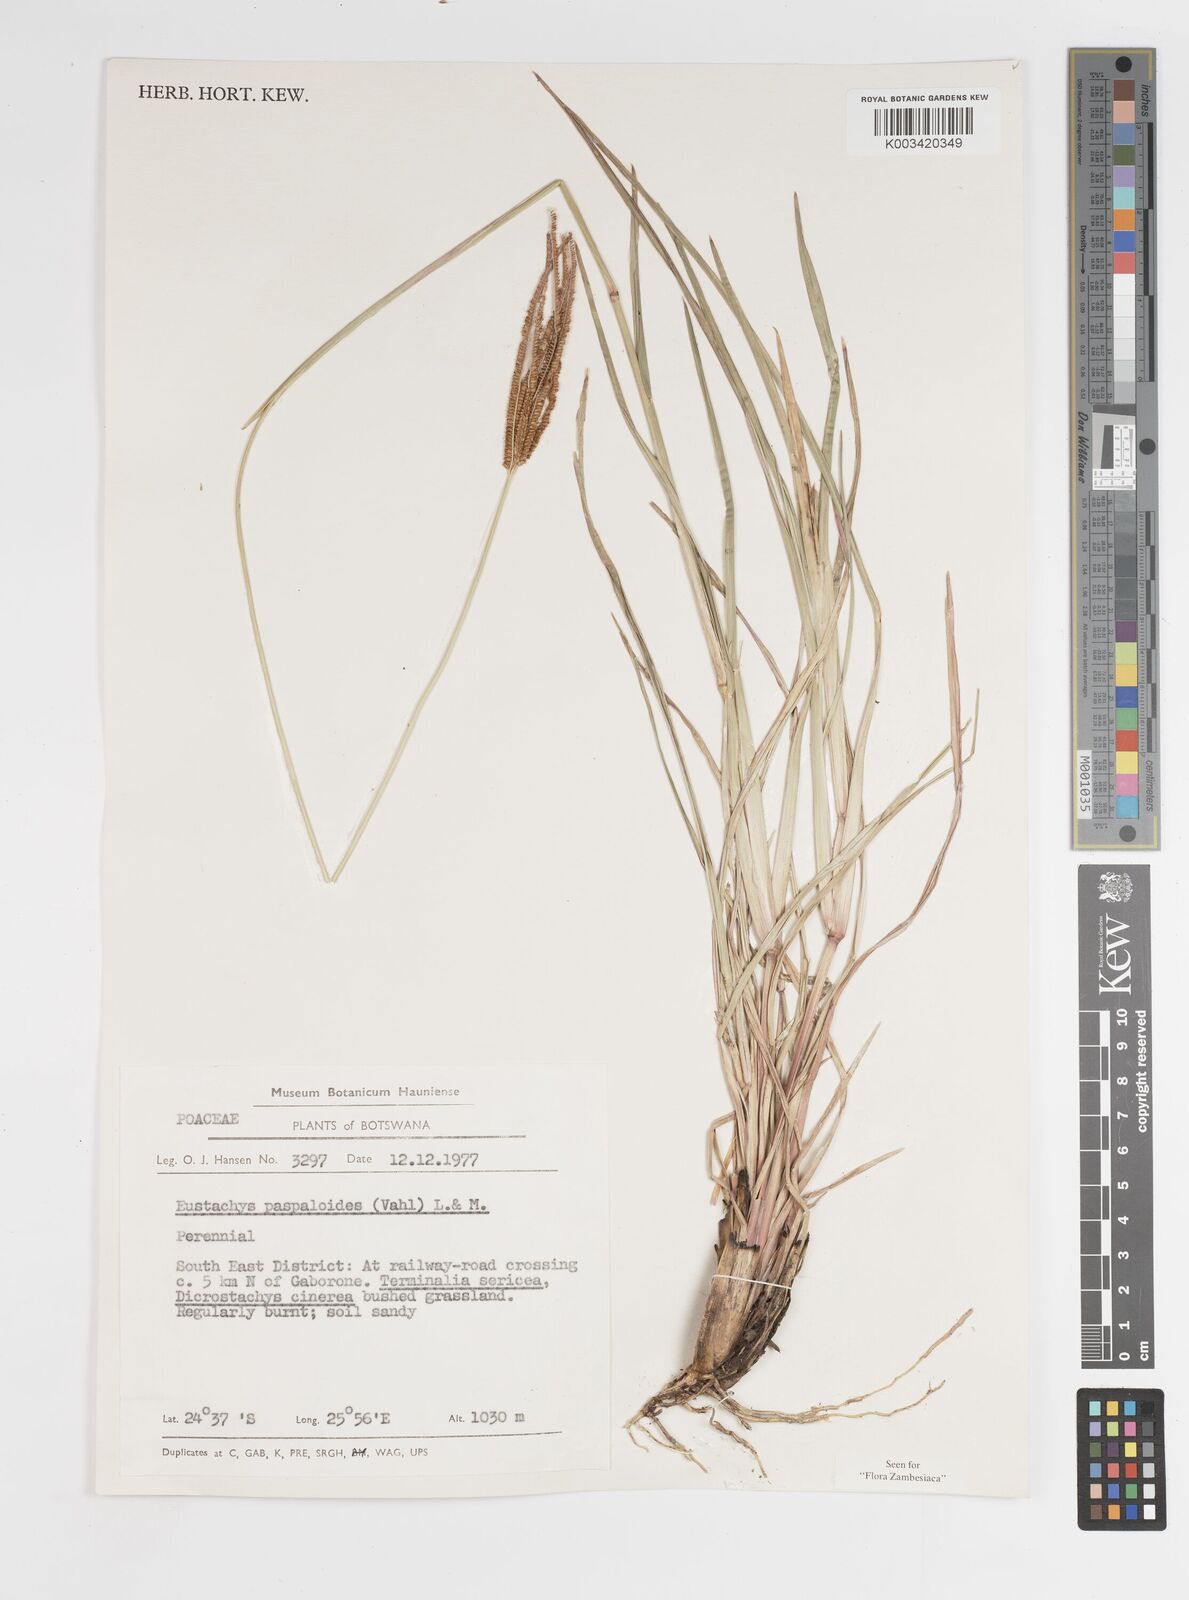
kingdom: Plantae
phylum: Tracheophyta
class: Liliopsida
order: Poales
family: Poaceae
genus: Eustachys
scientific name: Eustachys paspaloides
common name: Caribbean fingergrass
